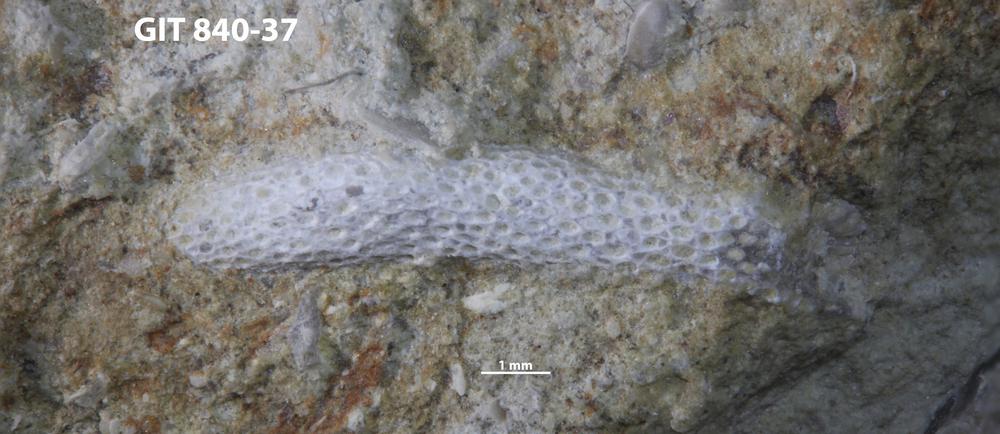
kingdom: Animalia
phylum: Bryozoa
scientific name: Bryozoa
